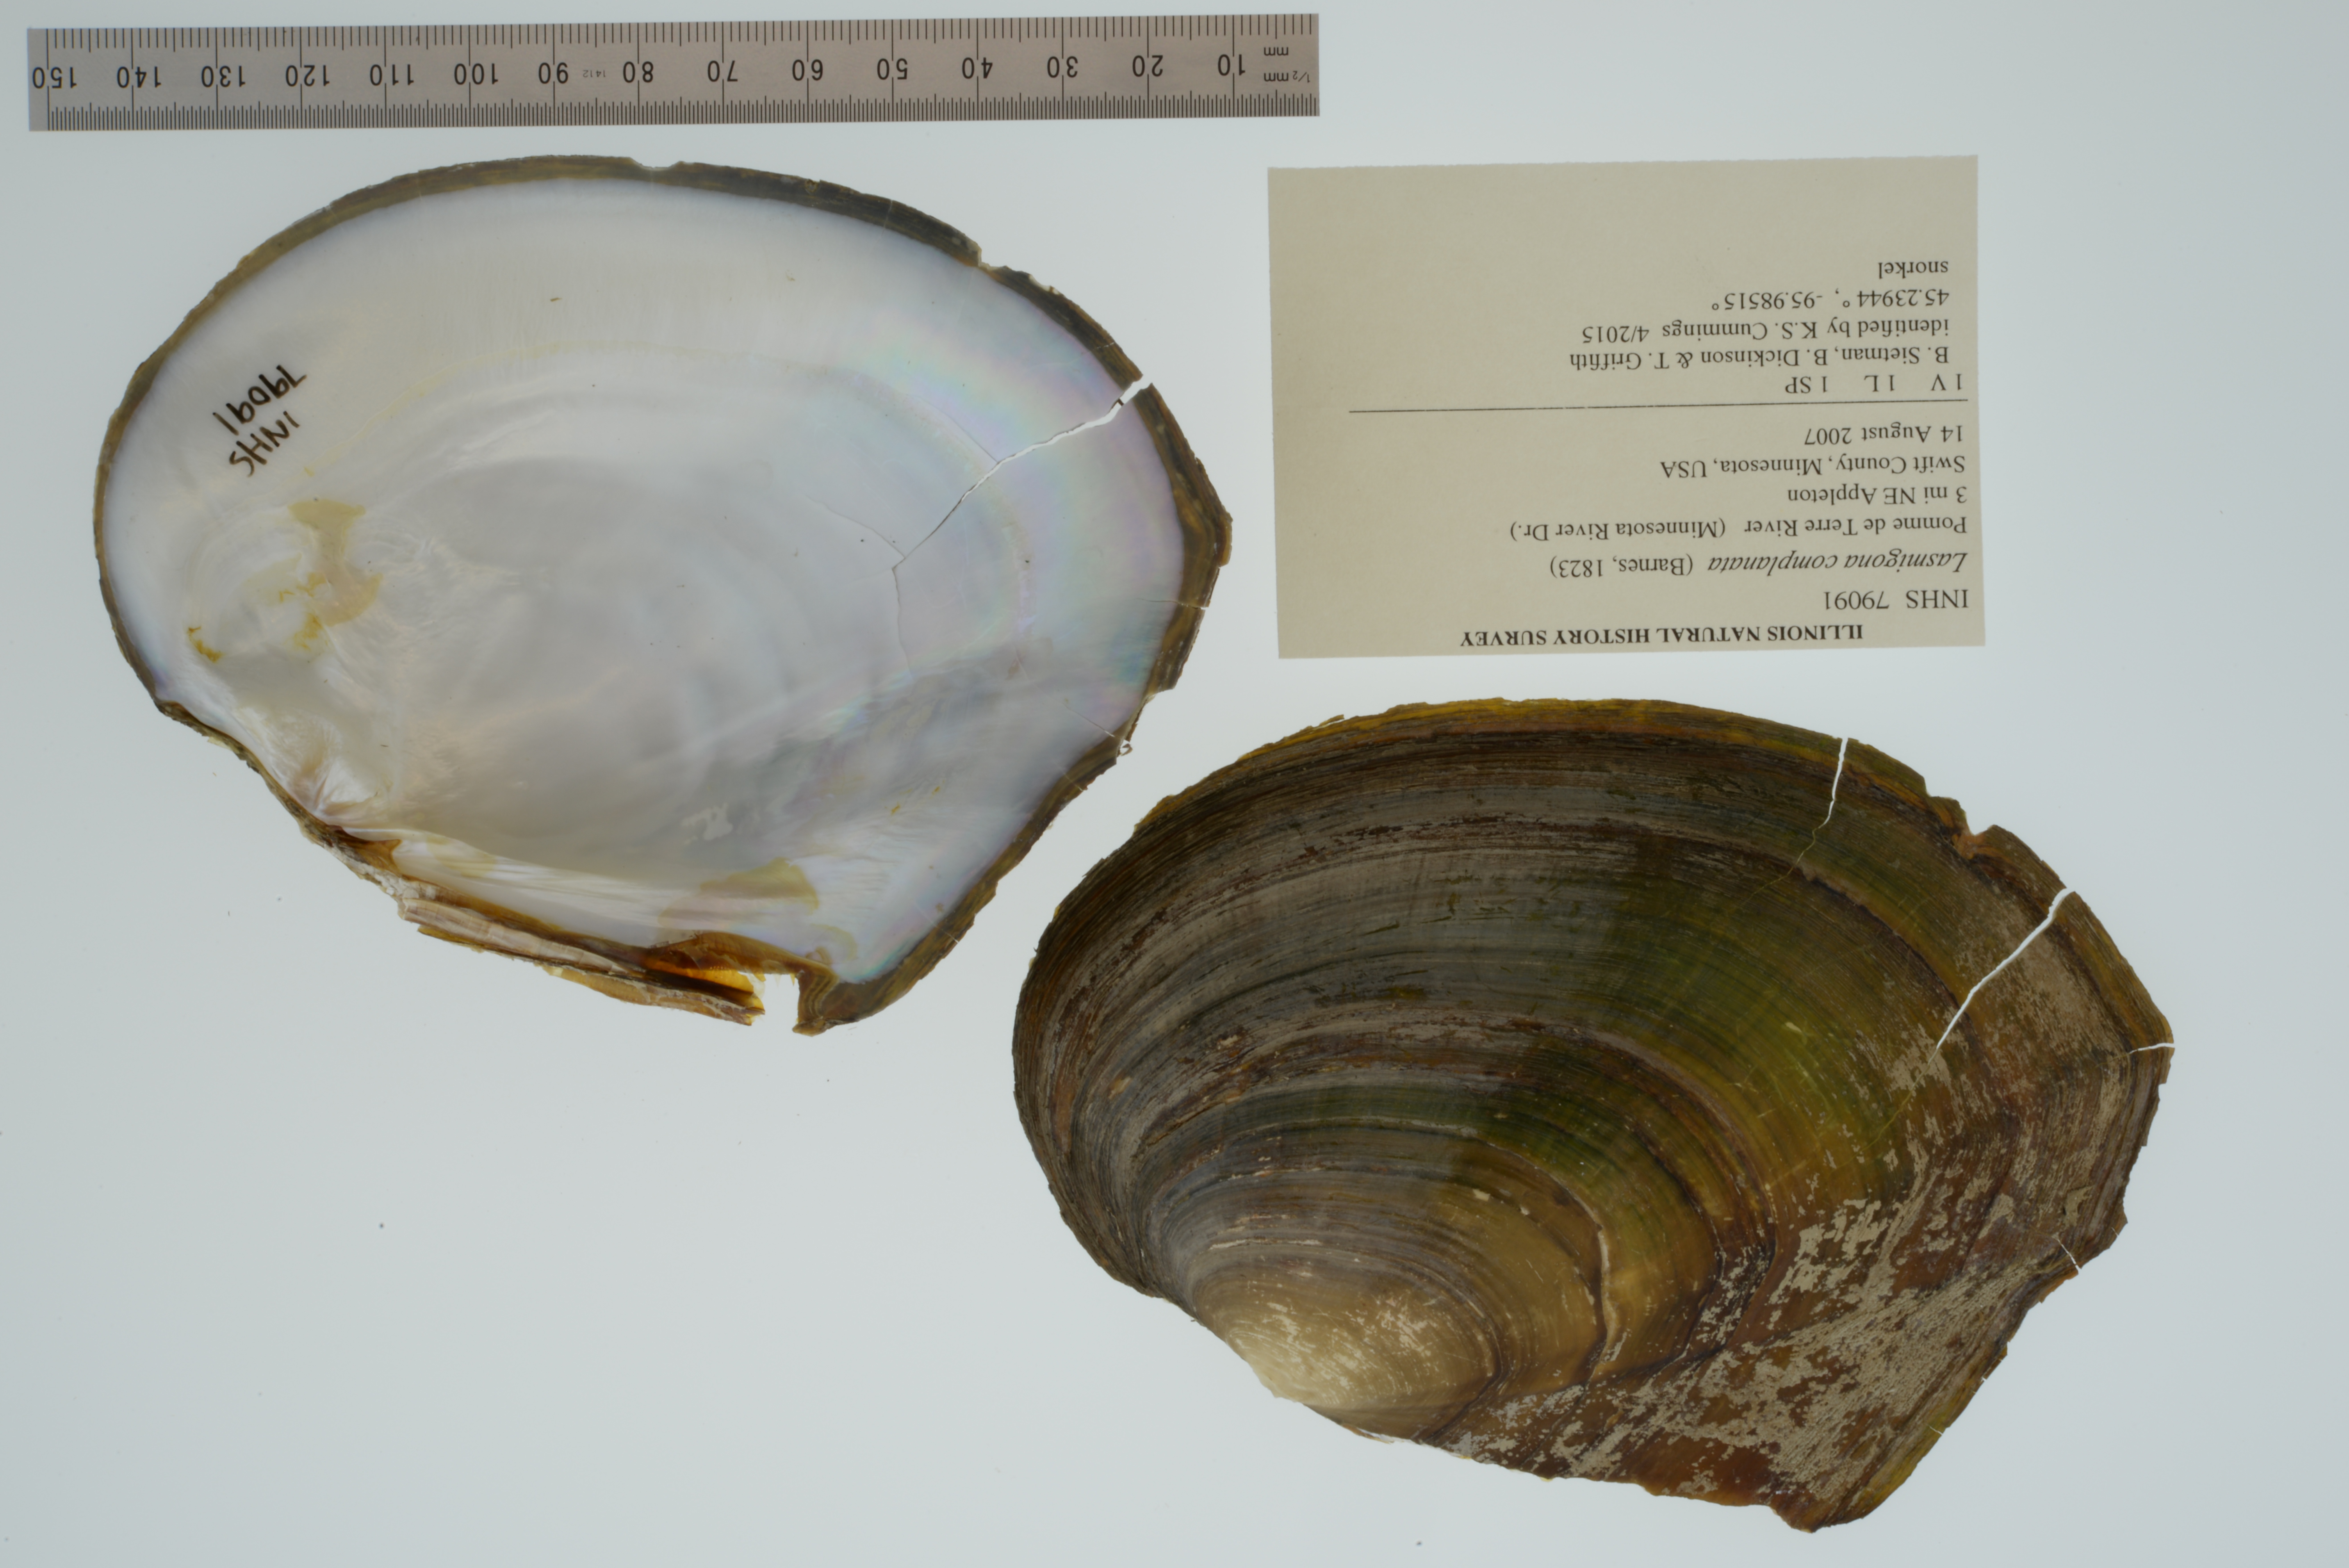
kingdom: Animalia
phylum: Mollusca
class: Bivalvia
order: Unionida
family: Unionidae
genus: Lasmigona
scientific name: Lasmigona complanata
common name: White heelsplitter
